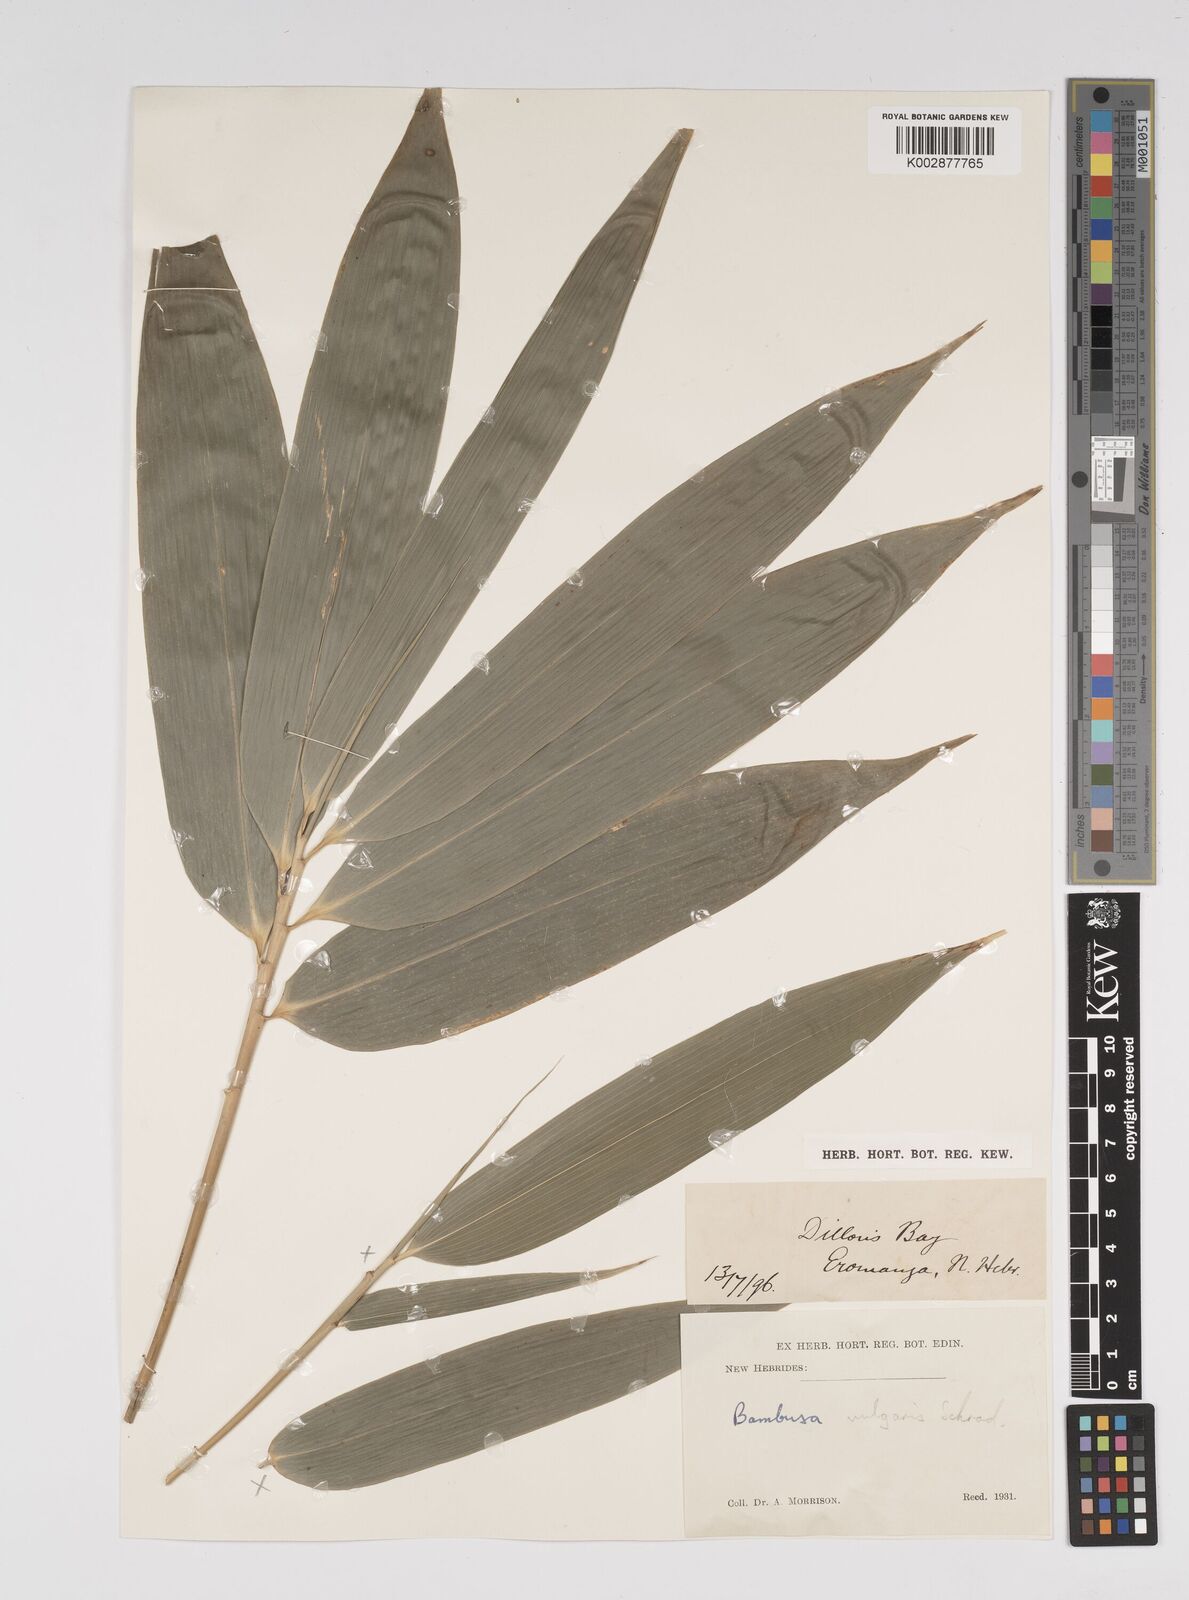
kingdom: Plantae
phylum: Tracheophyta
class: Liliopsida
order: Poales
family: Poaceae
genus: Bambusa
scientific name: Bambusa
